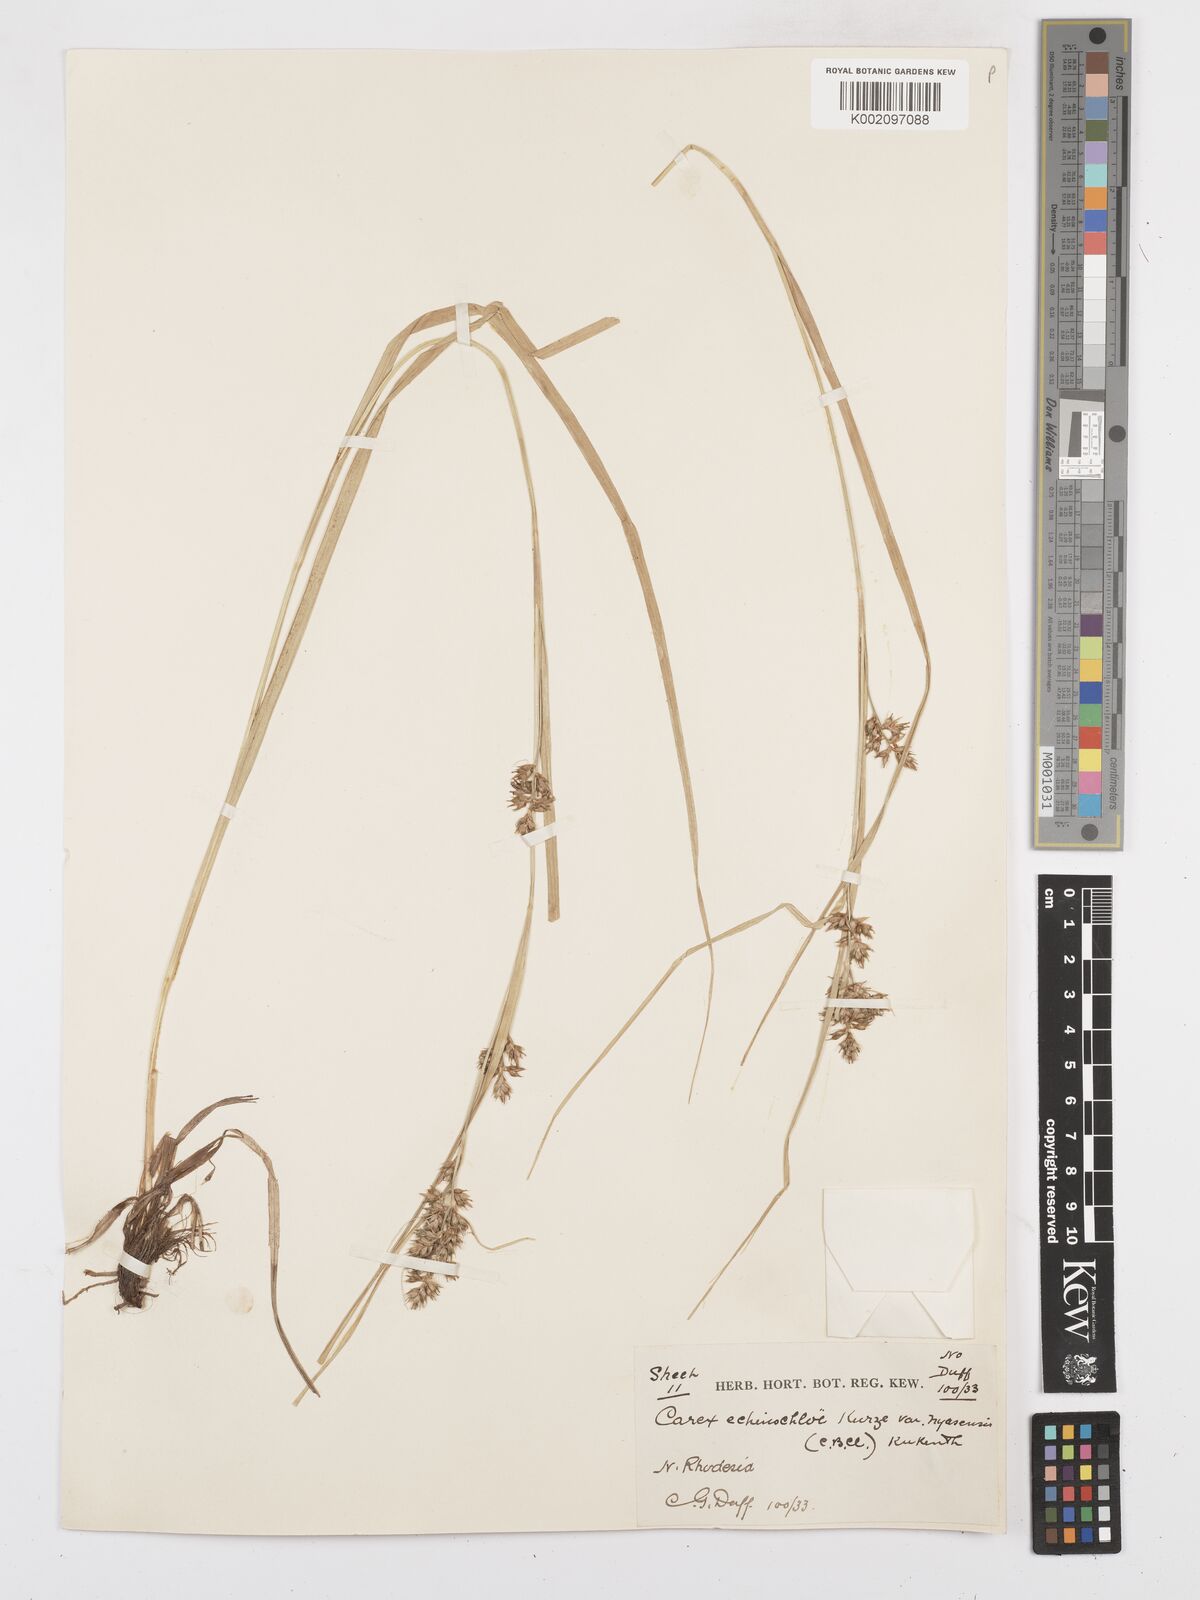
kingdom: Plantae
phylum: Tracheophyta
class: Liliopsida
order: Poales
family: Cyperaceae
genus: Carex
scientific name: Carex macrophyllidion
